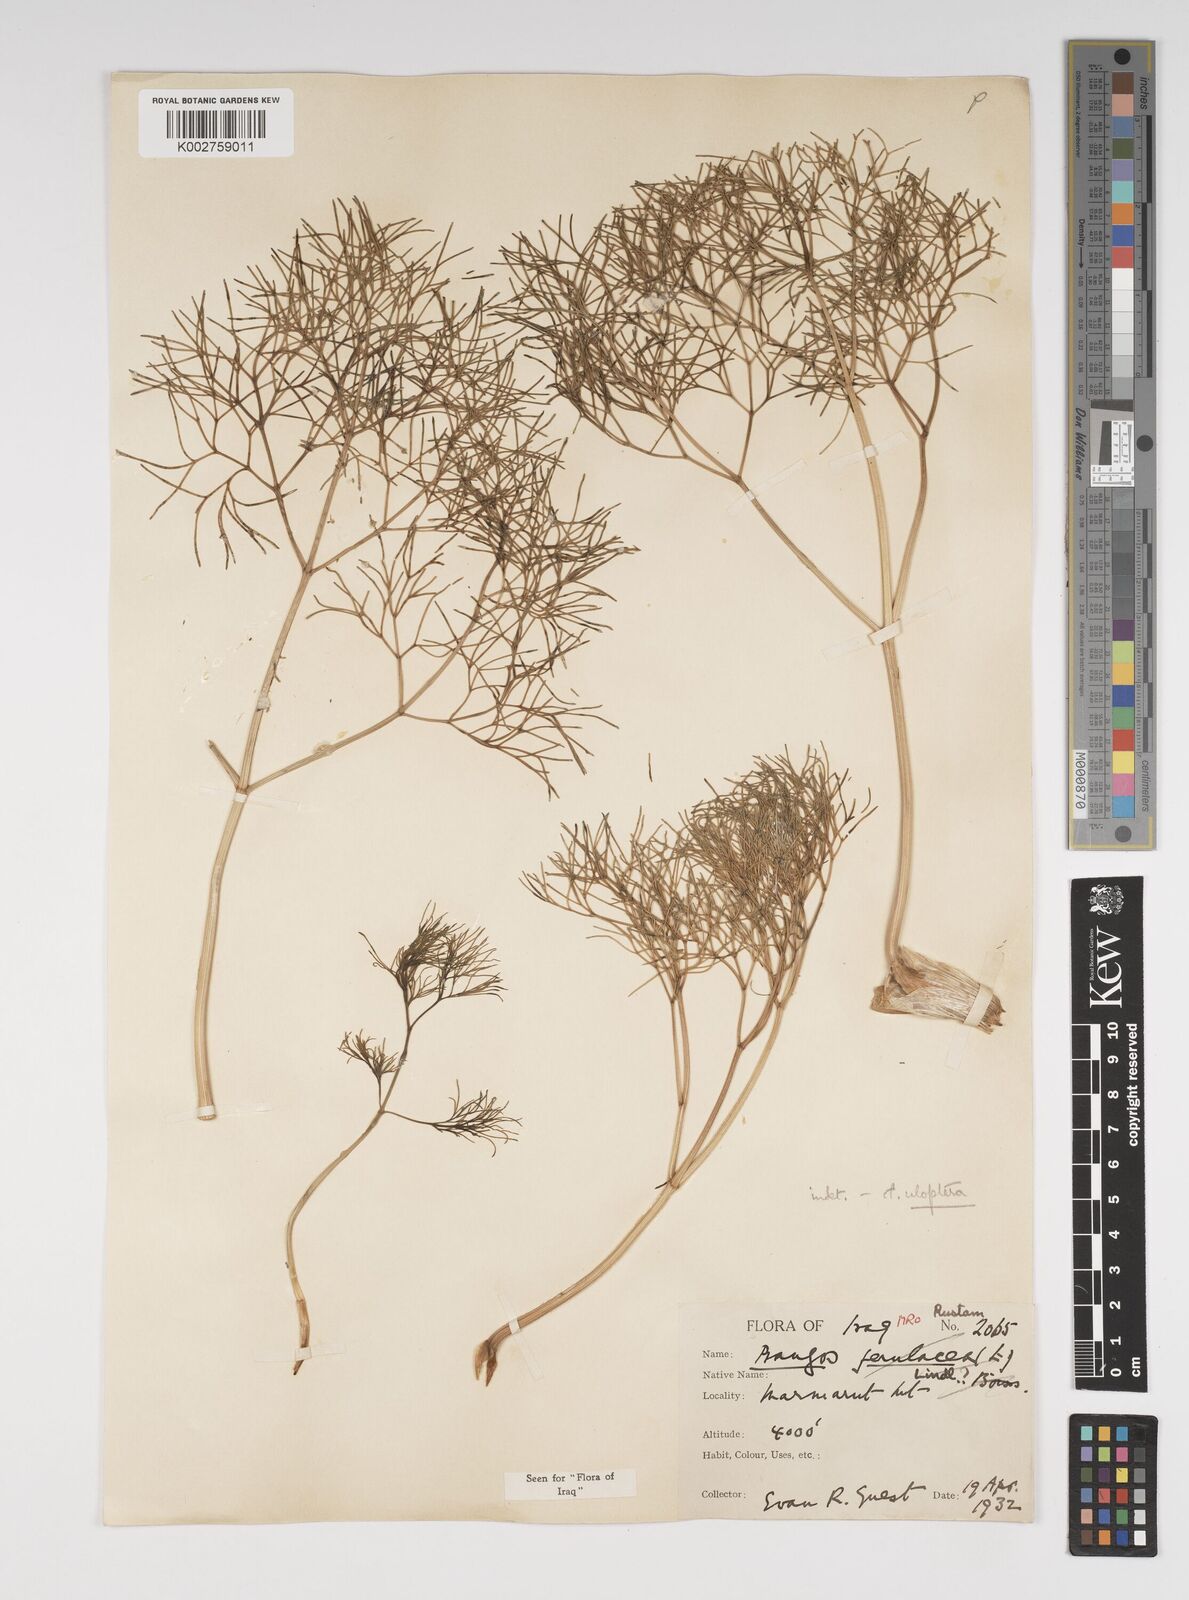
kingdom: Plantae
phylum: Tracheophyta
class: Magnoliopsida
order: Apiales
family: Apiaceae
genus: Prangos
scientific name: Prangos uloptera
